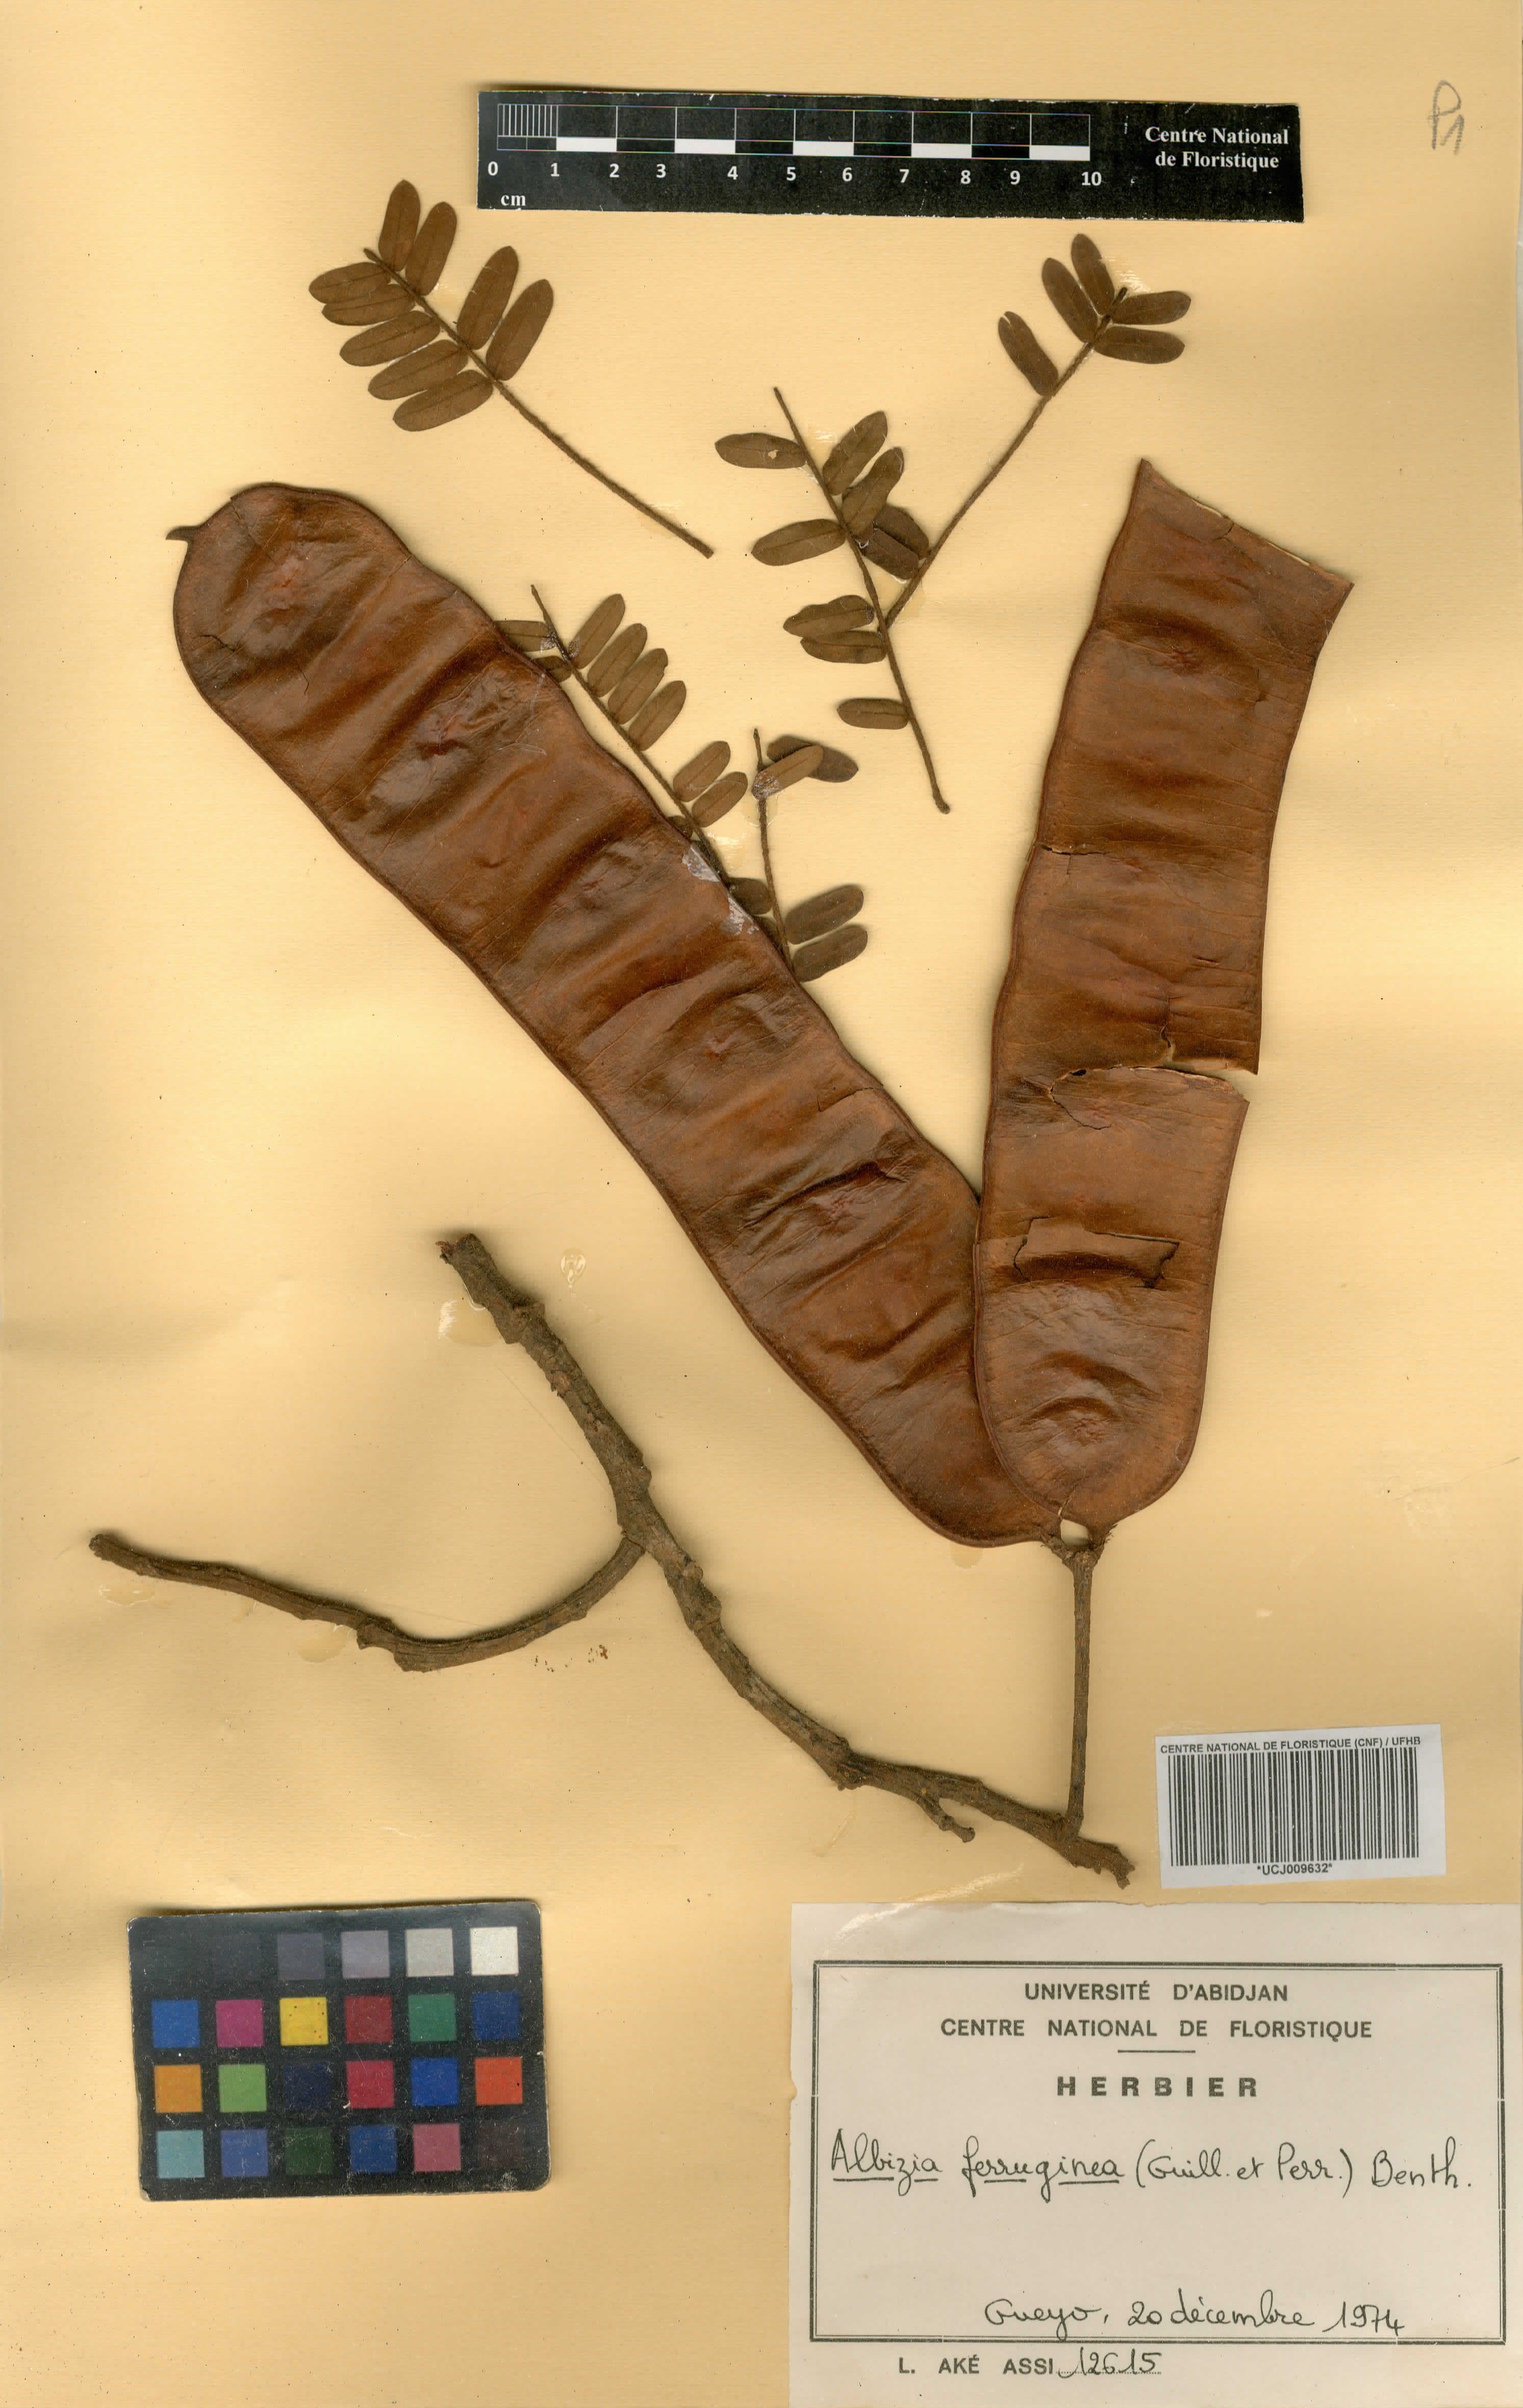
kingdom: Plantae
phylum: Tracheophyta
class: Magnoliopsida
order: Fabales
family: Fabaceae
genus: Albizia
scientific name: Albizia ferruginea
